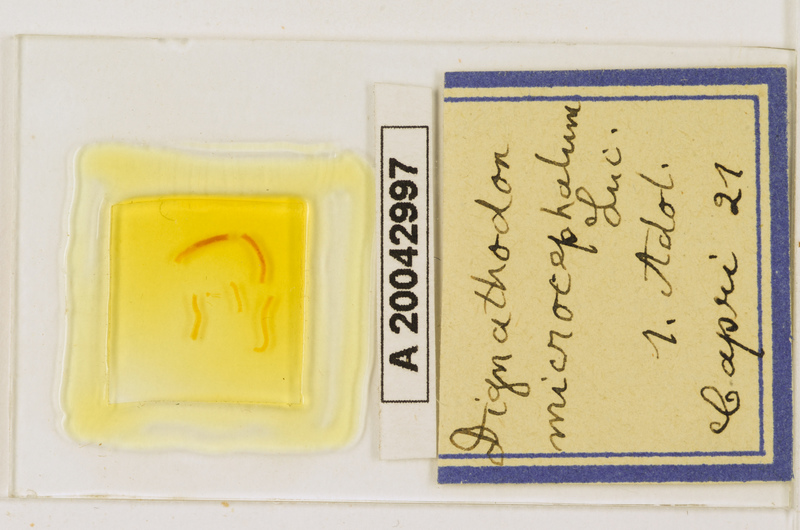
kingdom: Animalia
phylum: Arthropoda
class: Chilopoda
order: Geophilomorpha
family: Dignathodontidae
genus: Dignathodon
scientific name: Dignathodon microcephalus
